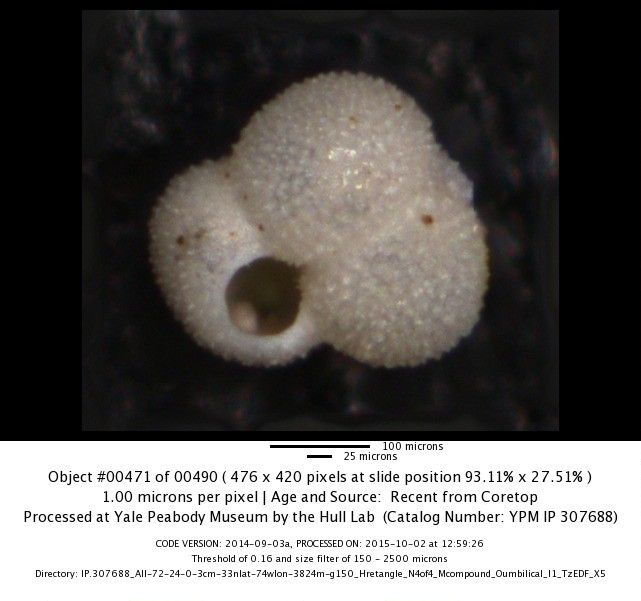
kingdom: Chromista
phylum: Foraminifera
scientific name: Foraminifera
